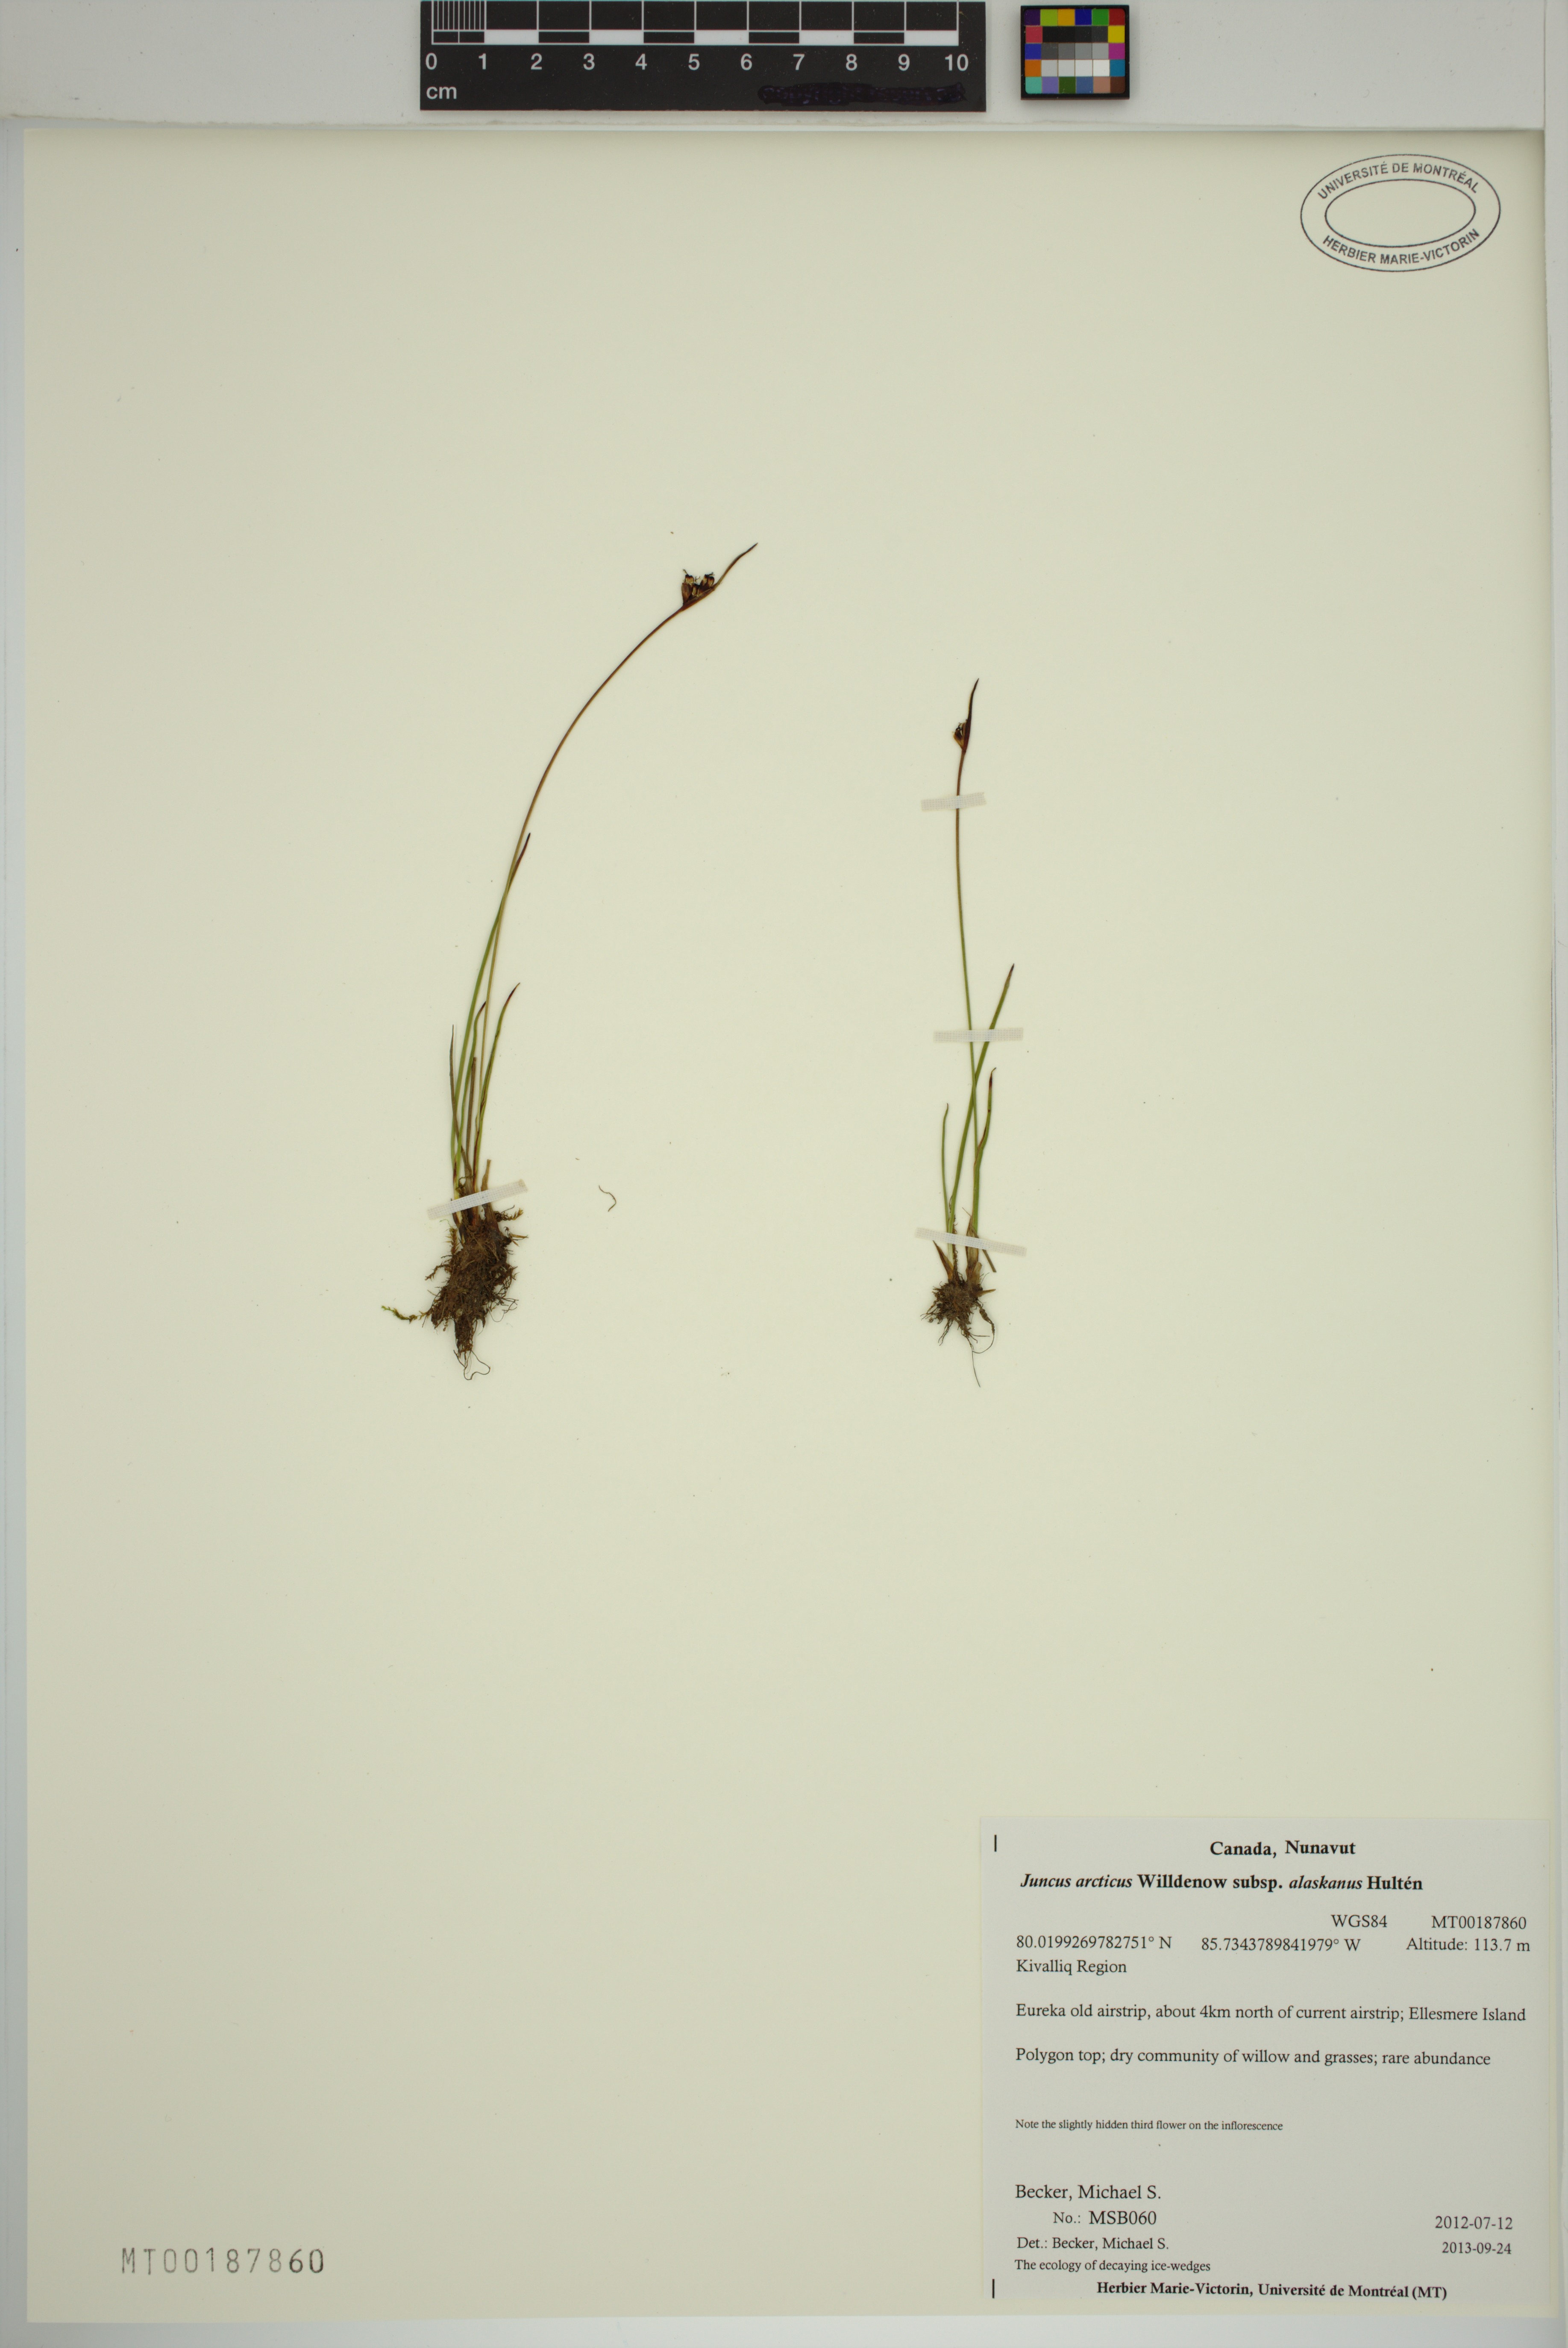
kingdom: Plantae
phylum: Tracheophyta
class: Liliopsida
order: Poales
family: Juncaceae
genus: Juncus
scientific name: Juncus biglumis
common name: Two-flowered rush
